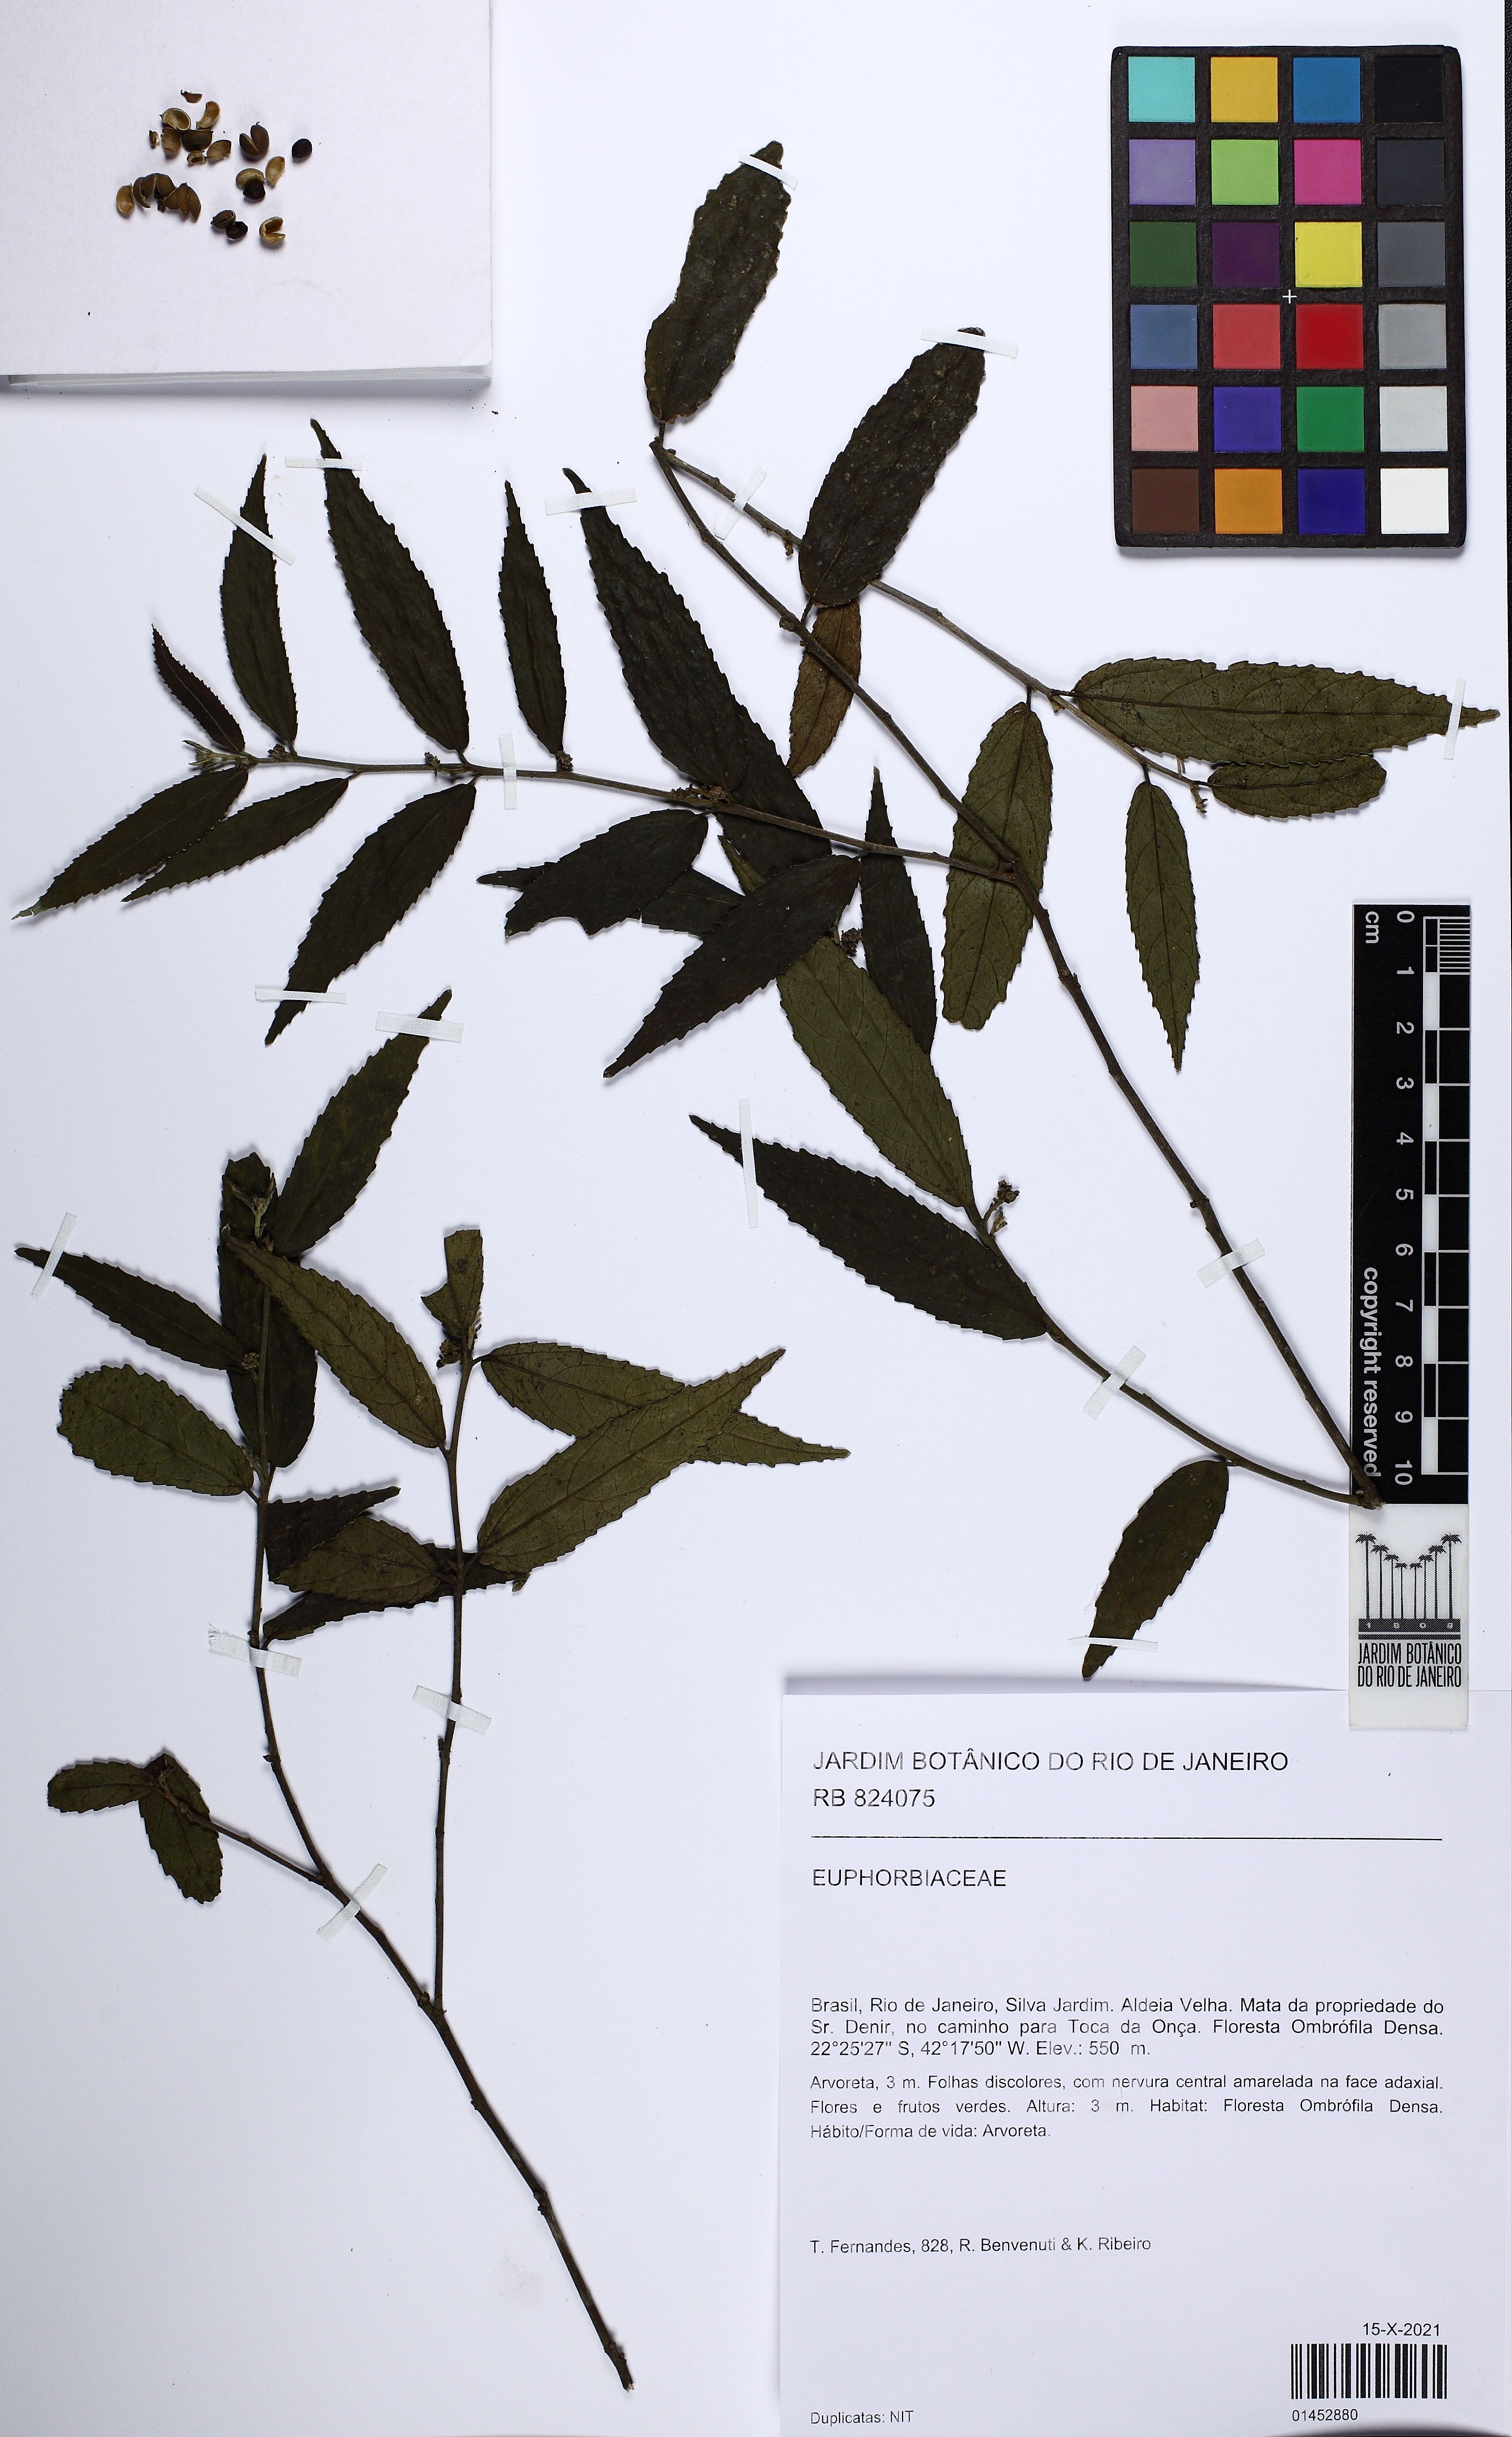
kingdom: Plantae
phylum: Tracheophyta
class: Magnoliopsida
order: Malpighiales
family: Euphorbiaceae
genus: Bernardia
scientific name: Bernardia
